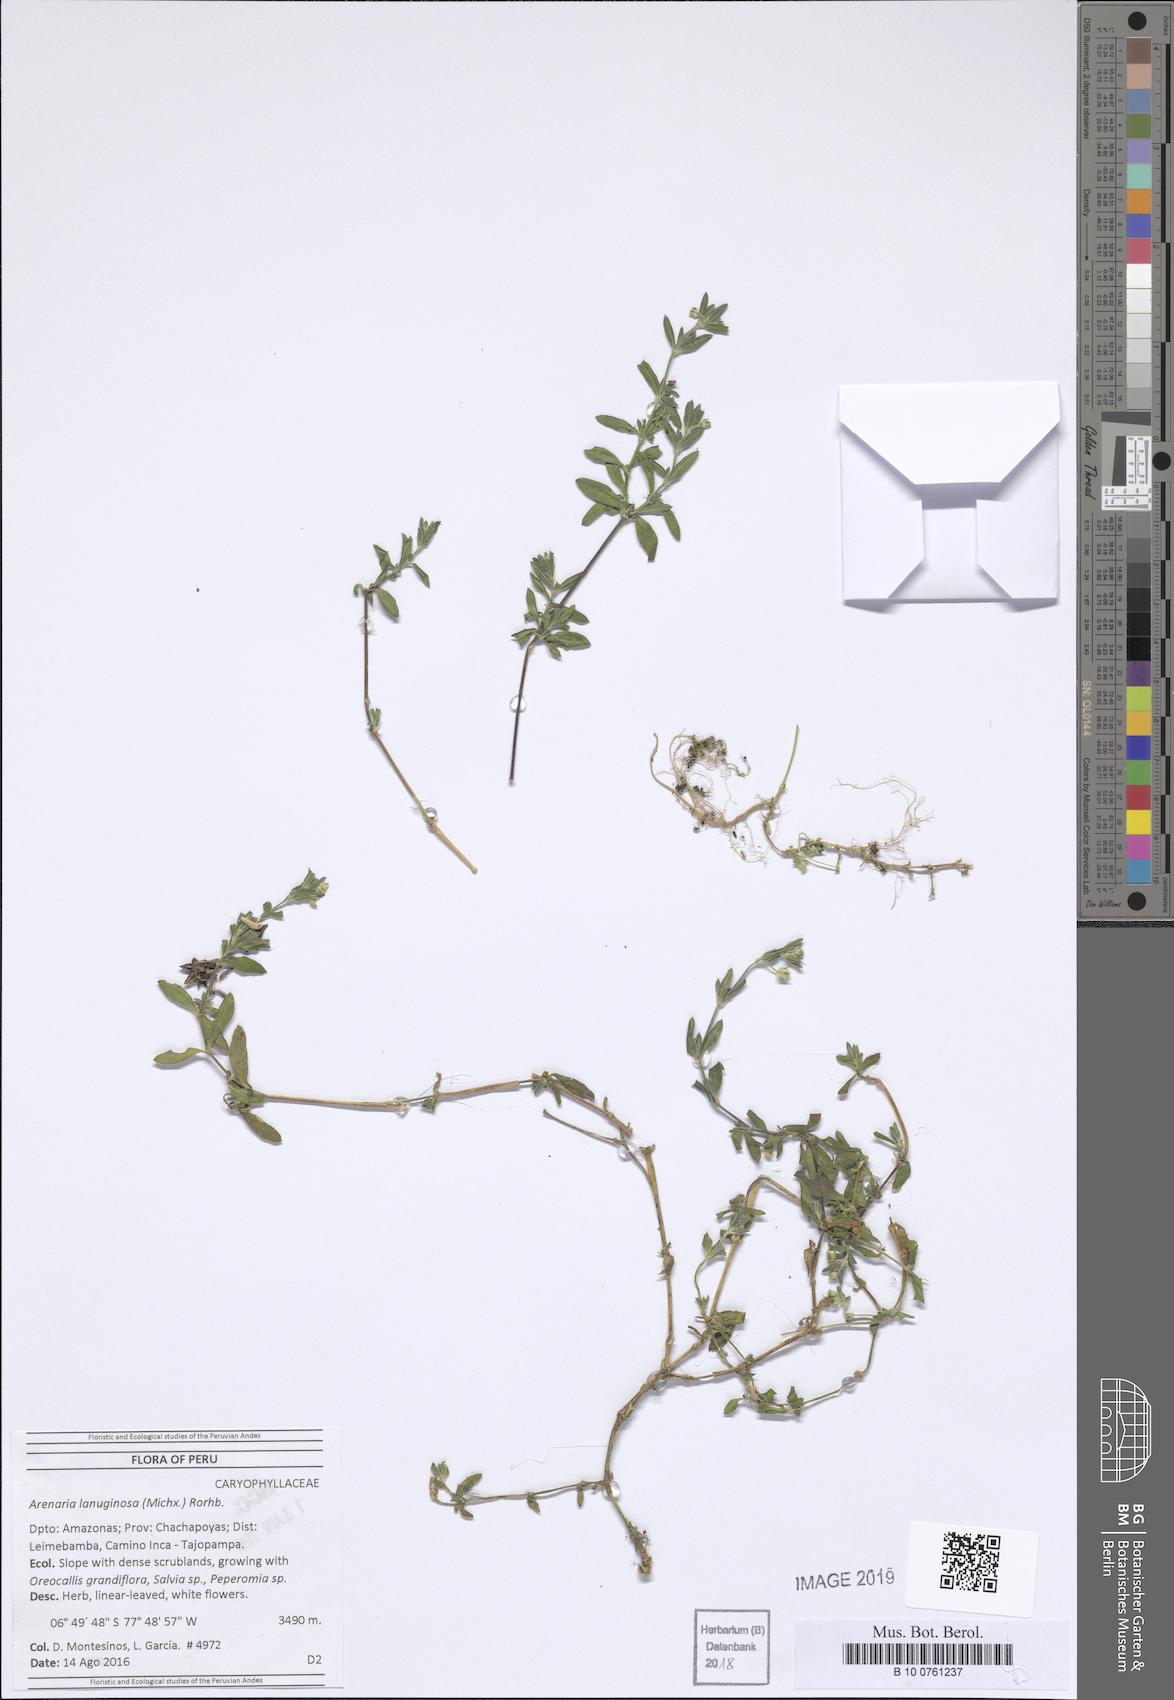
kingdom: Plantae
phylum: Tracheophyta
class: Magnoliopsida
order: Caryophyllales
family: Caryophyllaceae
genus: Arenaria
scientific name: Arenaria lanuginosa
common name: Spread sandwort
